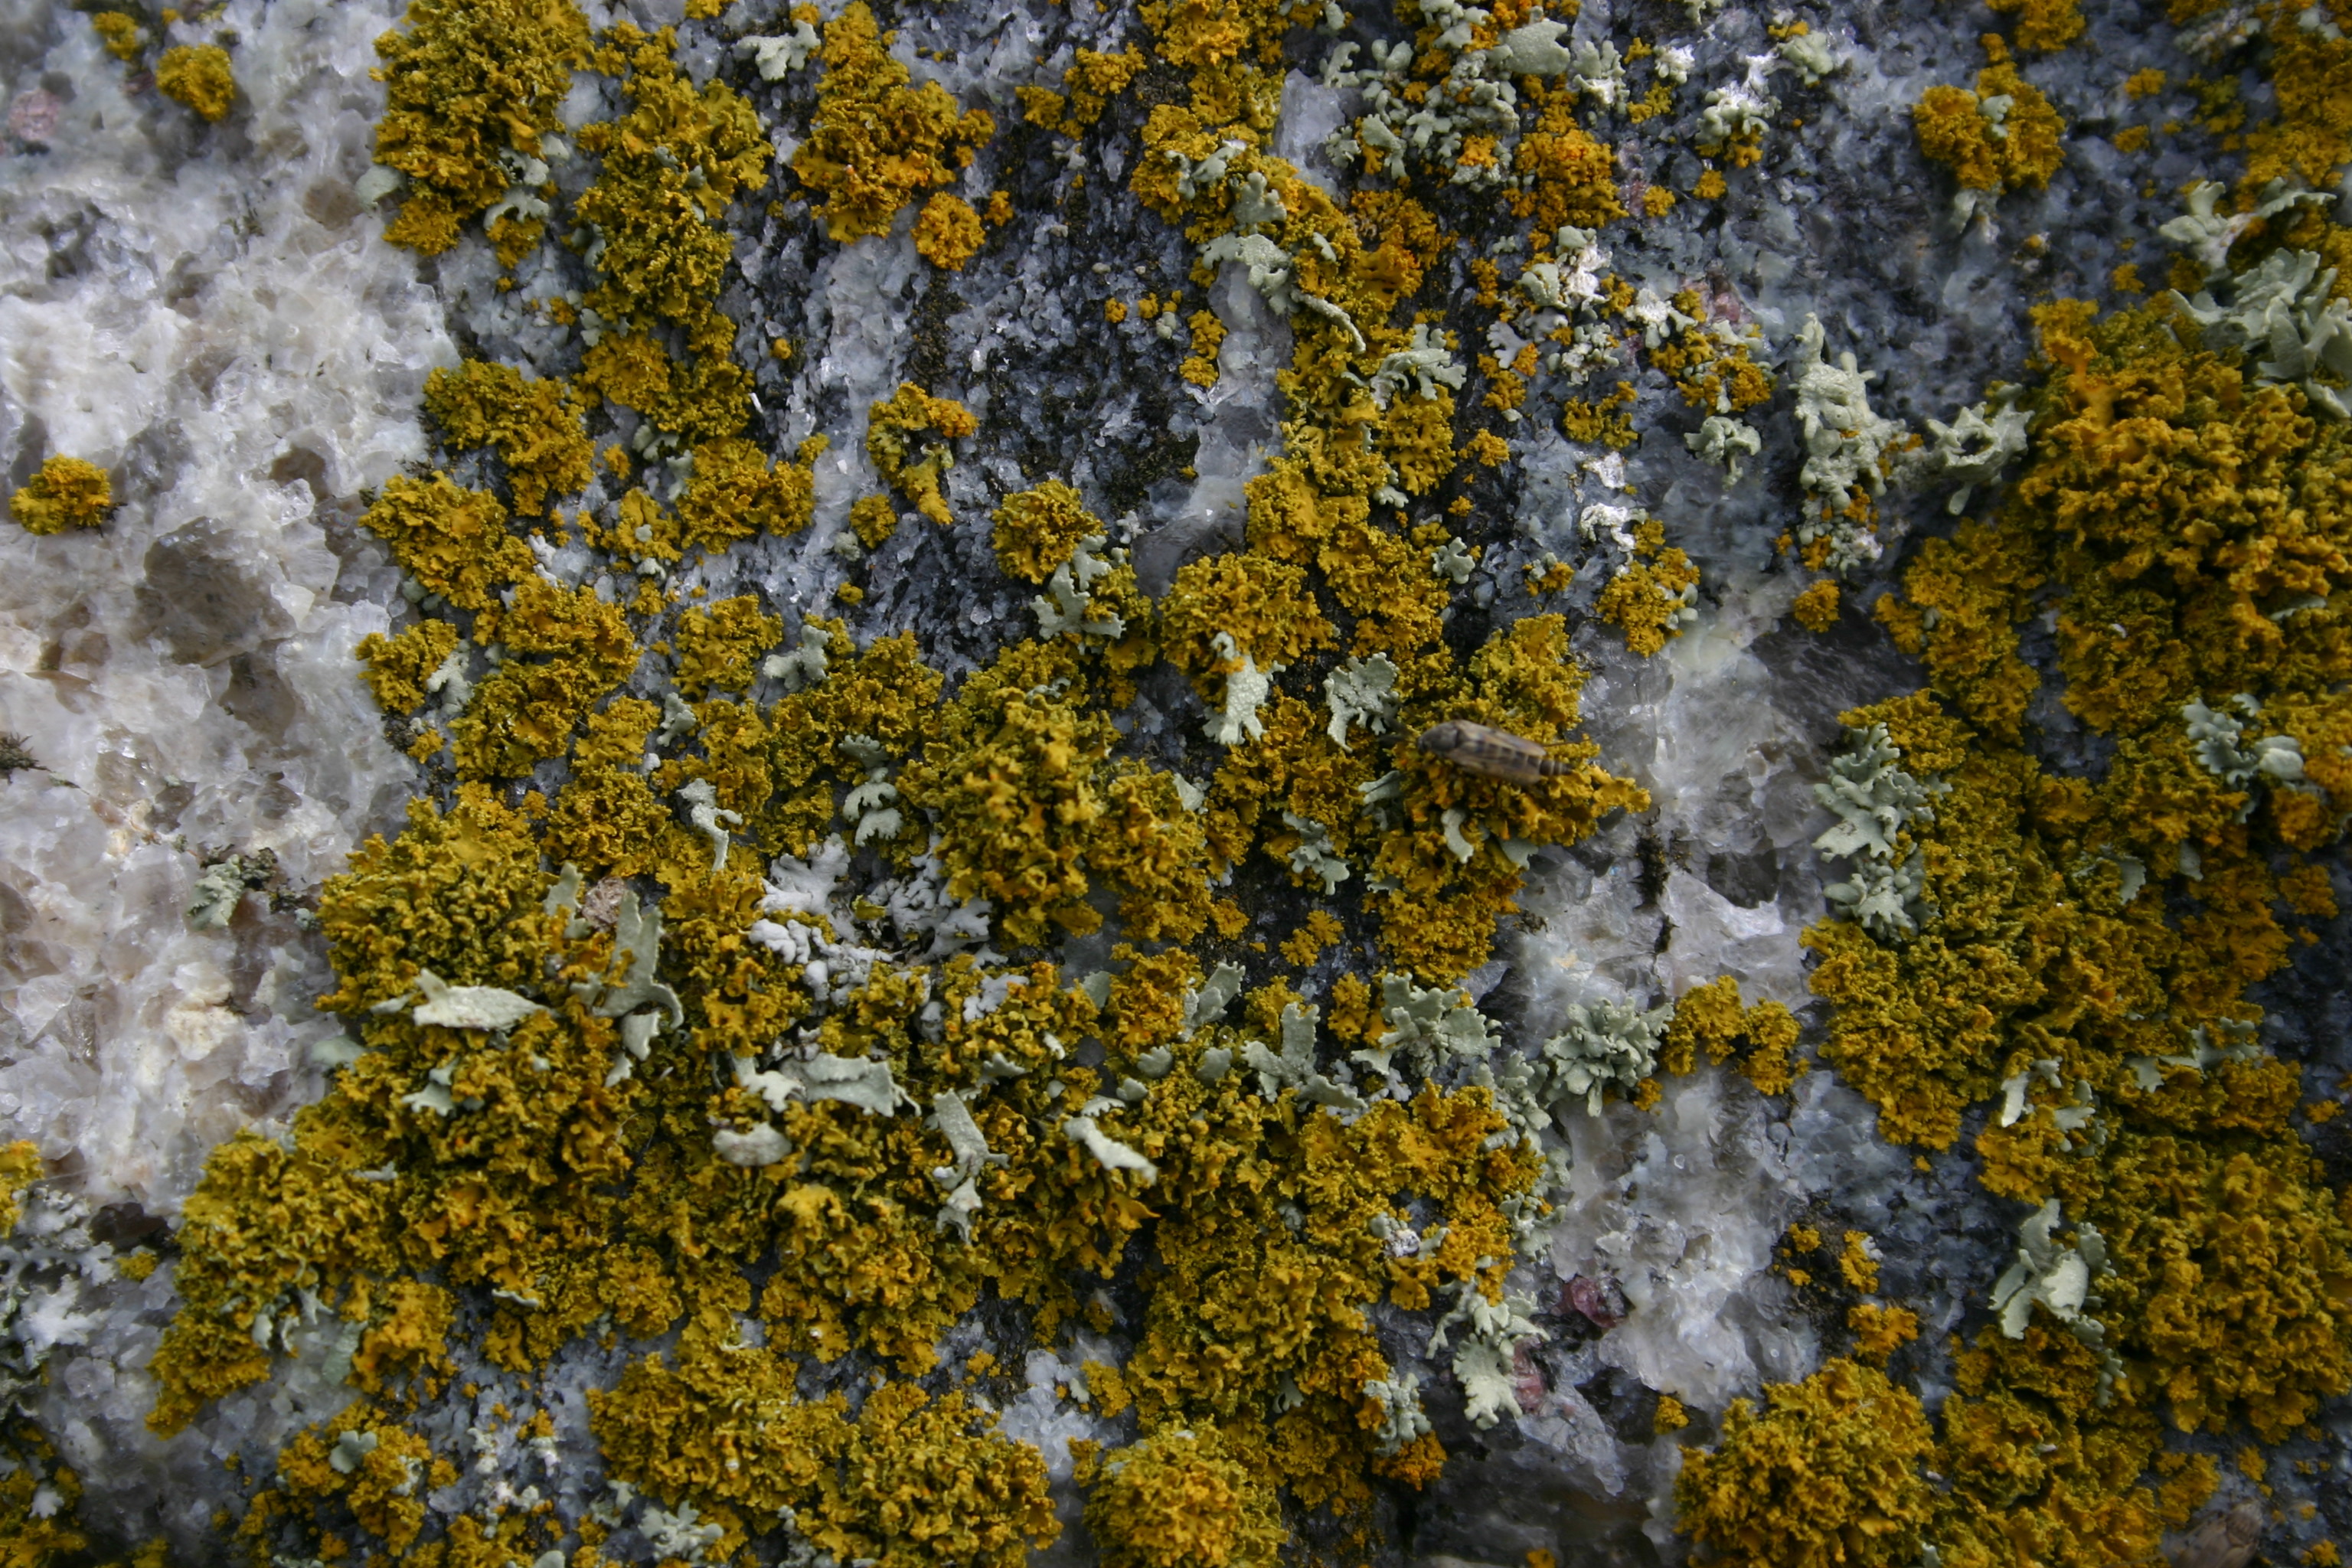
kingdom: Fungi
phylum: Ascomycota
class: Lecanoromycetes
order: Teloschistales
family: Teloschistaceae
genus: Polycauliona
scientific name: Polycauliona candelaria
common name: Shrubby sunburst lichen
